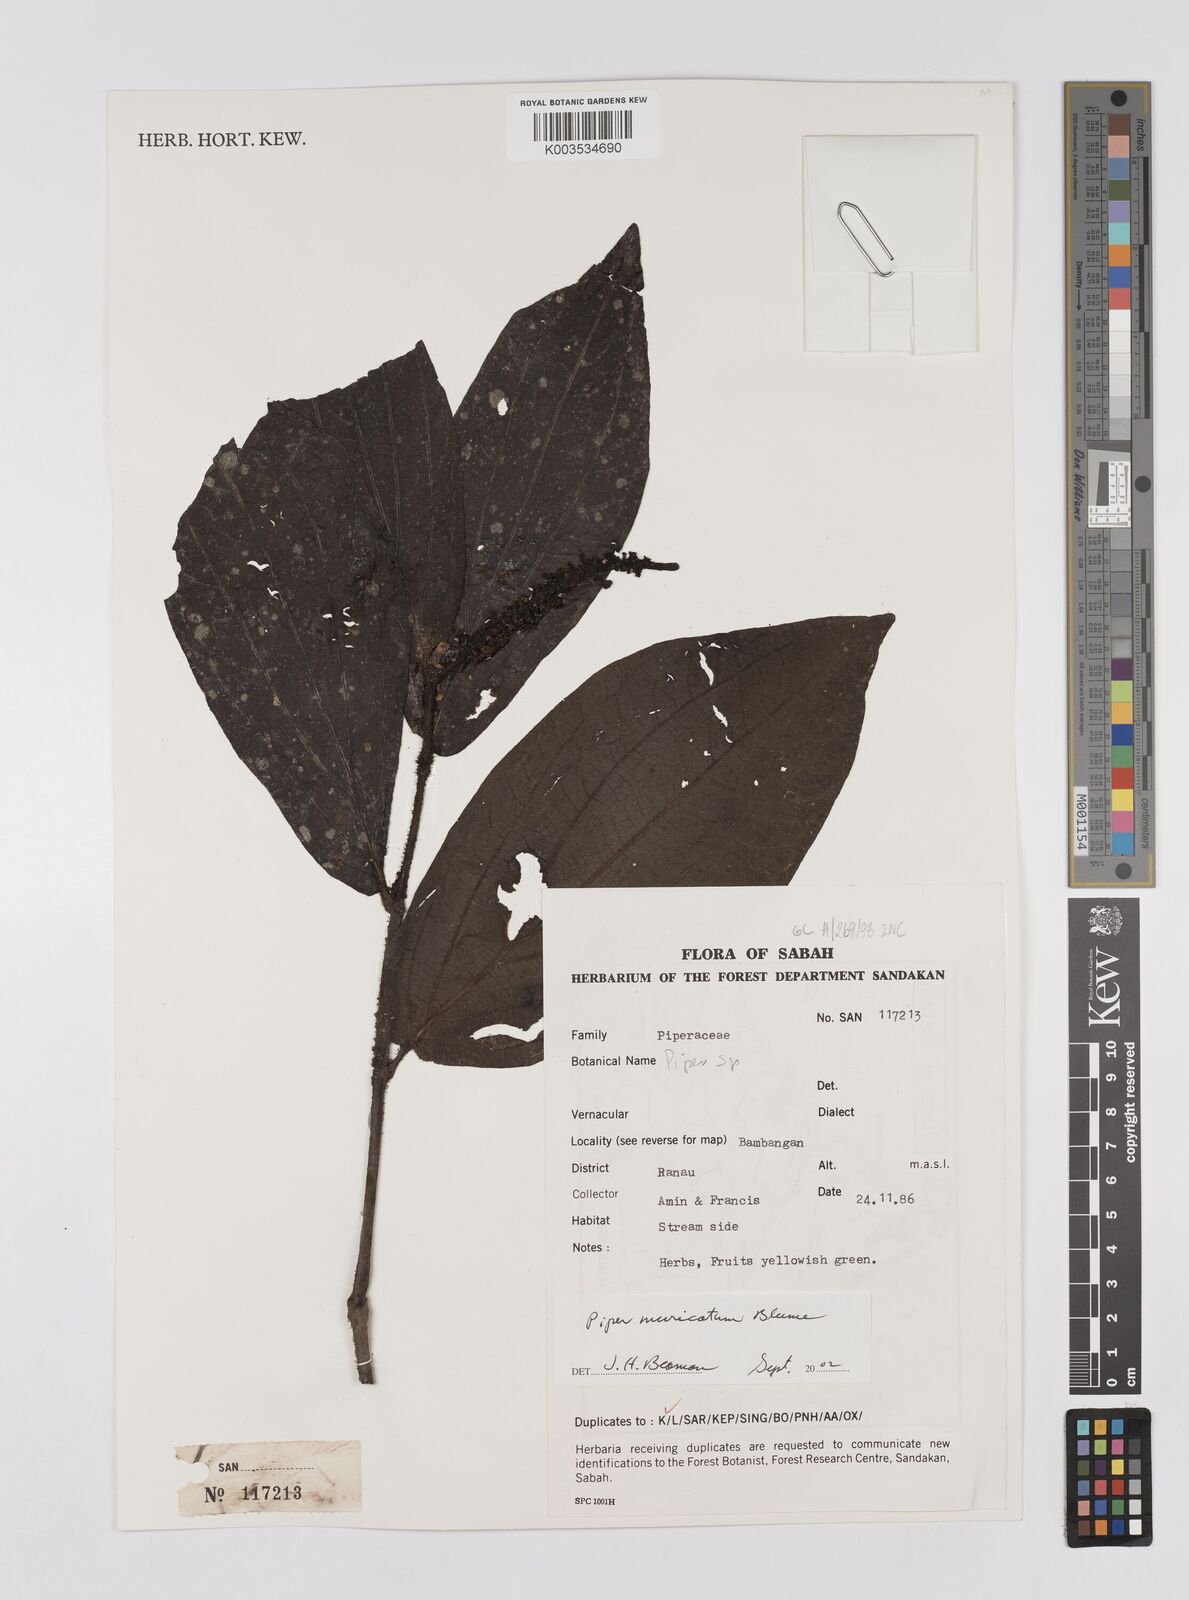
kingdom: Plantae
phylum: Tracheophyta
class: Magnoliopsida
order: Piperales
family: Piperaceae
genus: Piper
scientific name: Piper muricatum
